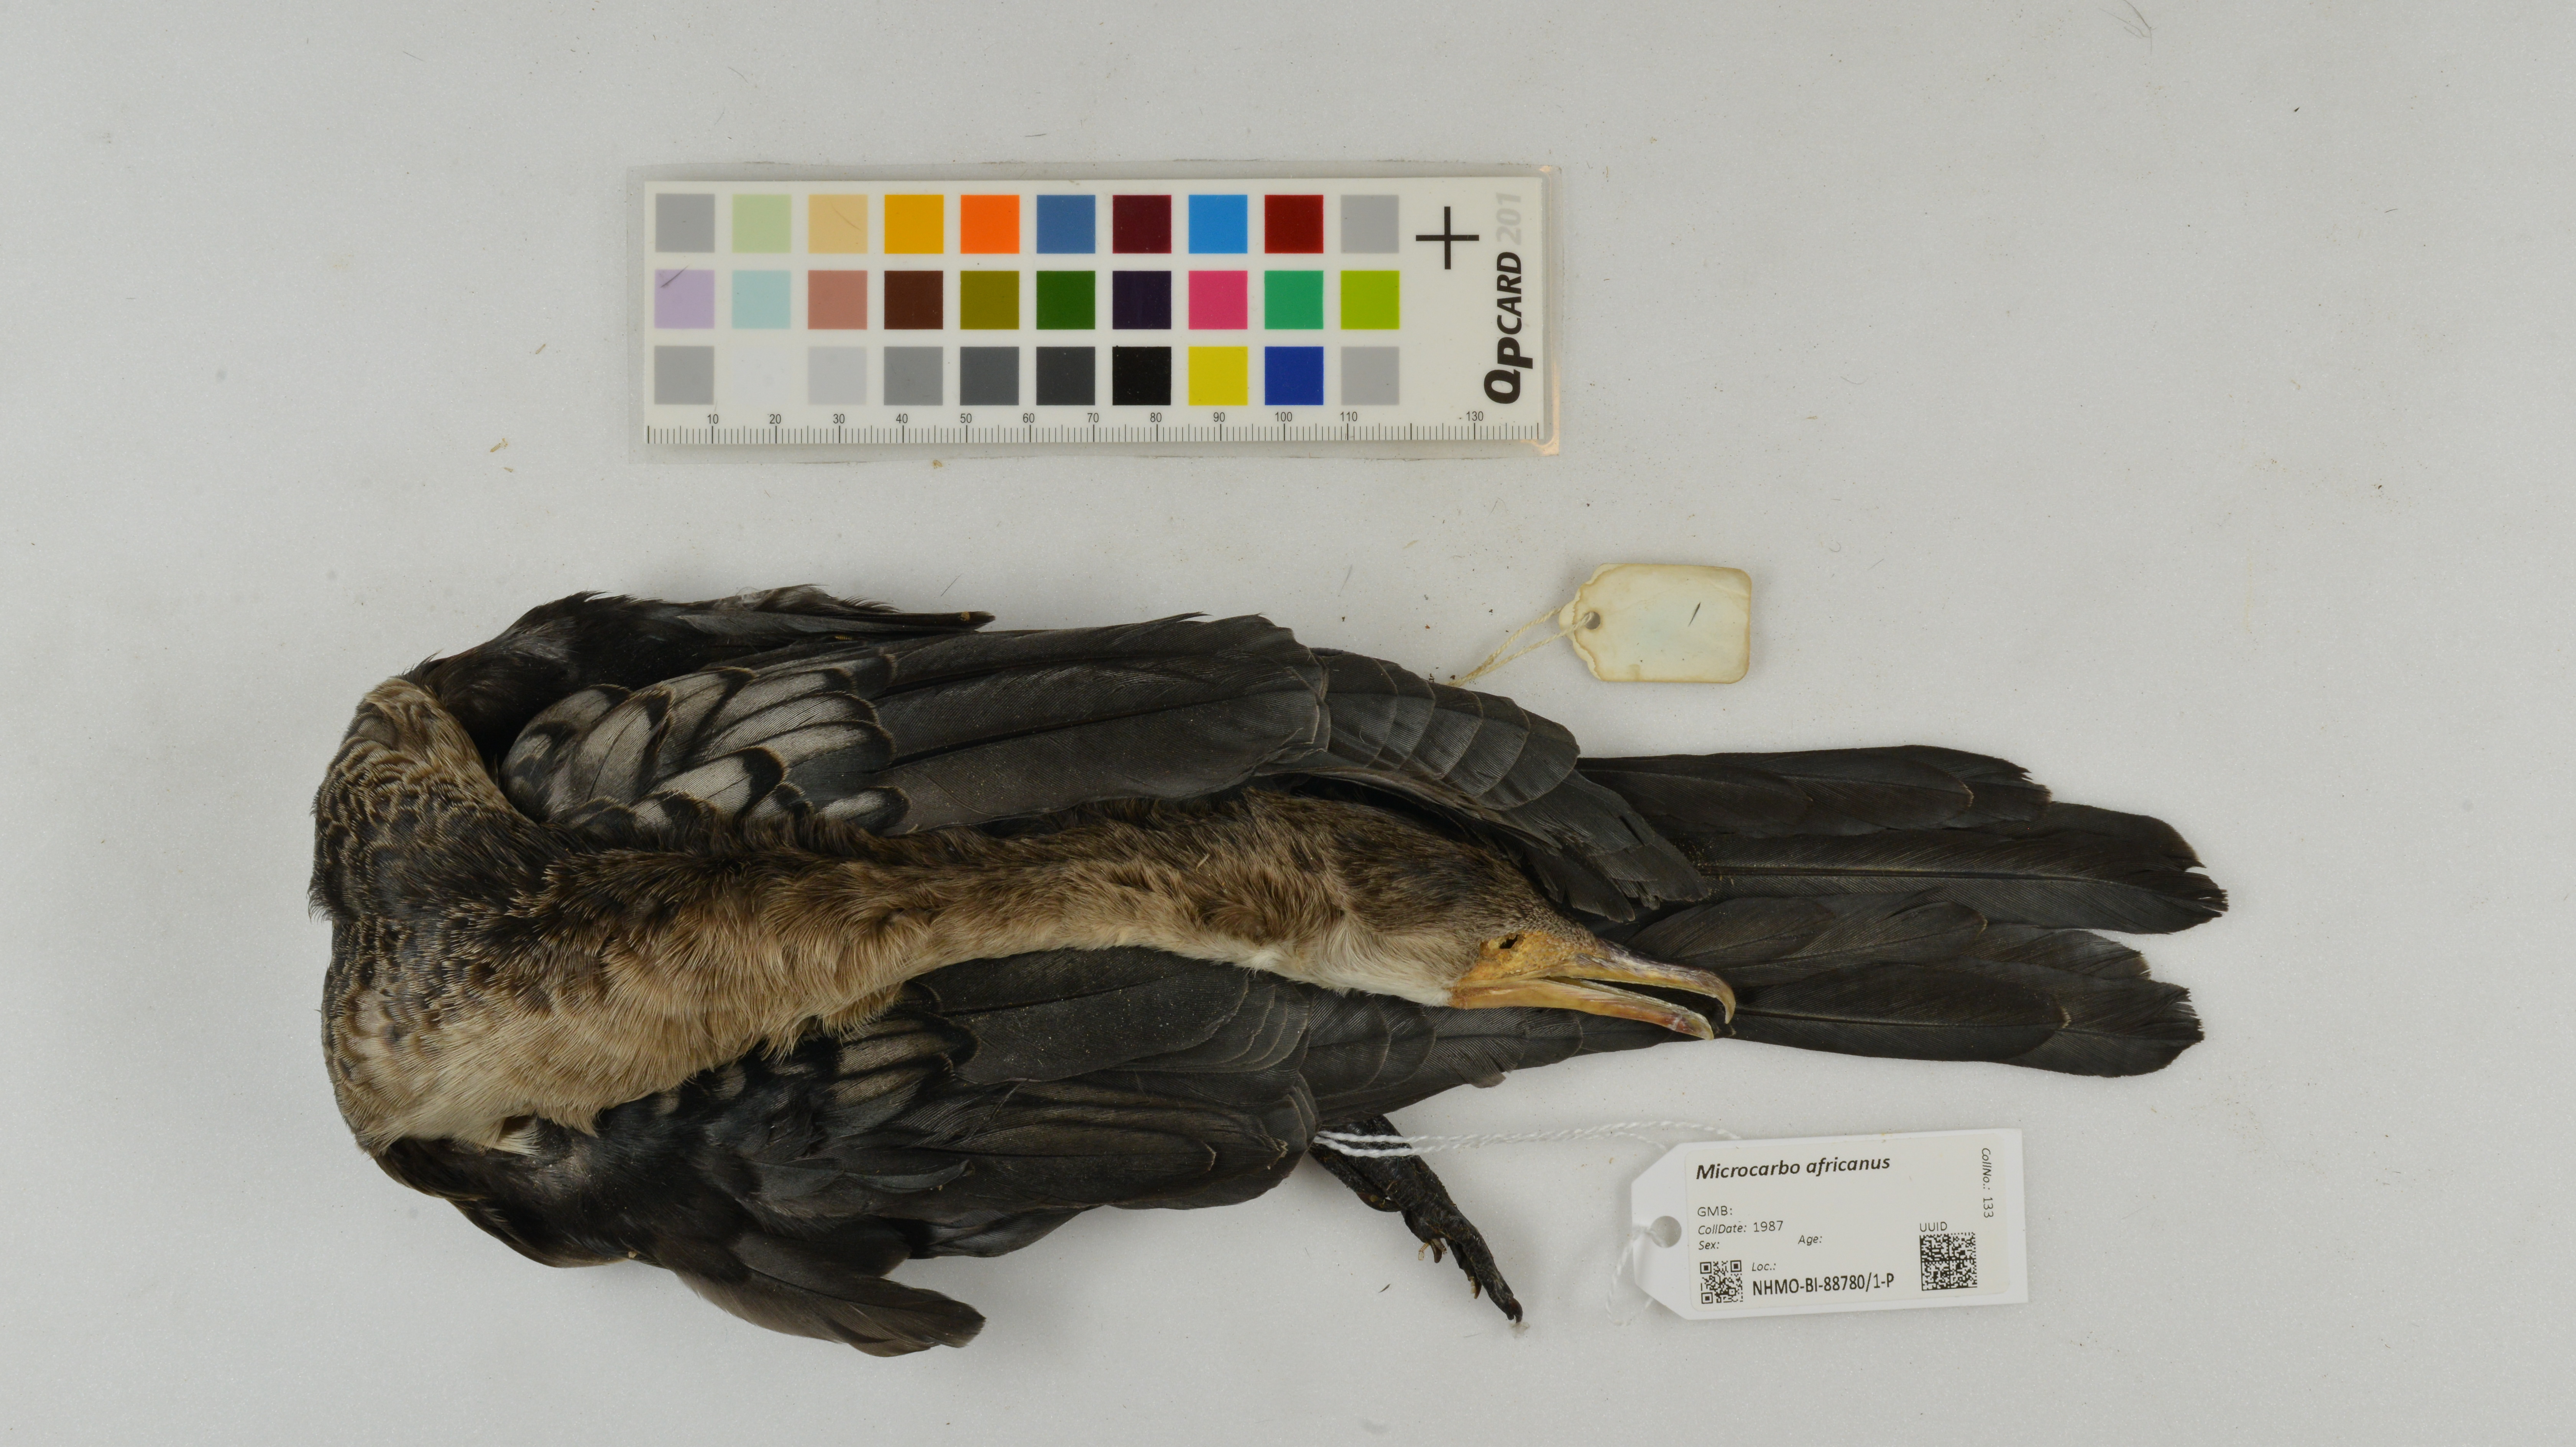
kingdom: Animalia
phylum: Chordata
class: Aves
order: Suliformes
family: Phalacrocoracidae
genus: Microcarbo
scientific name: Microcarbo africanus
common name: Long-tailed cormorant
